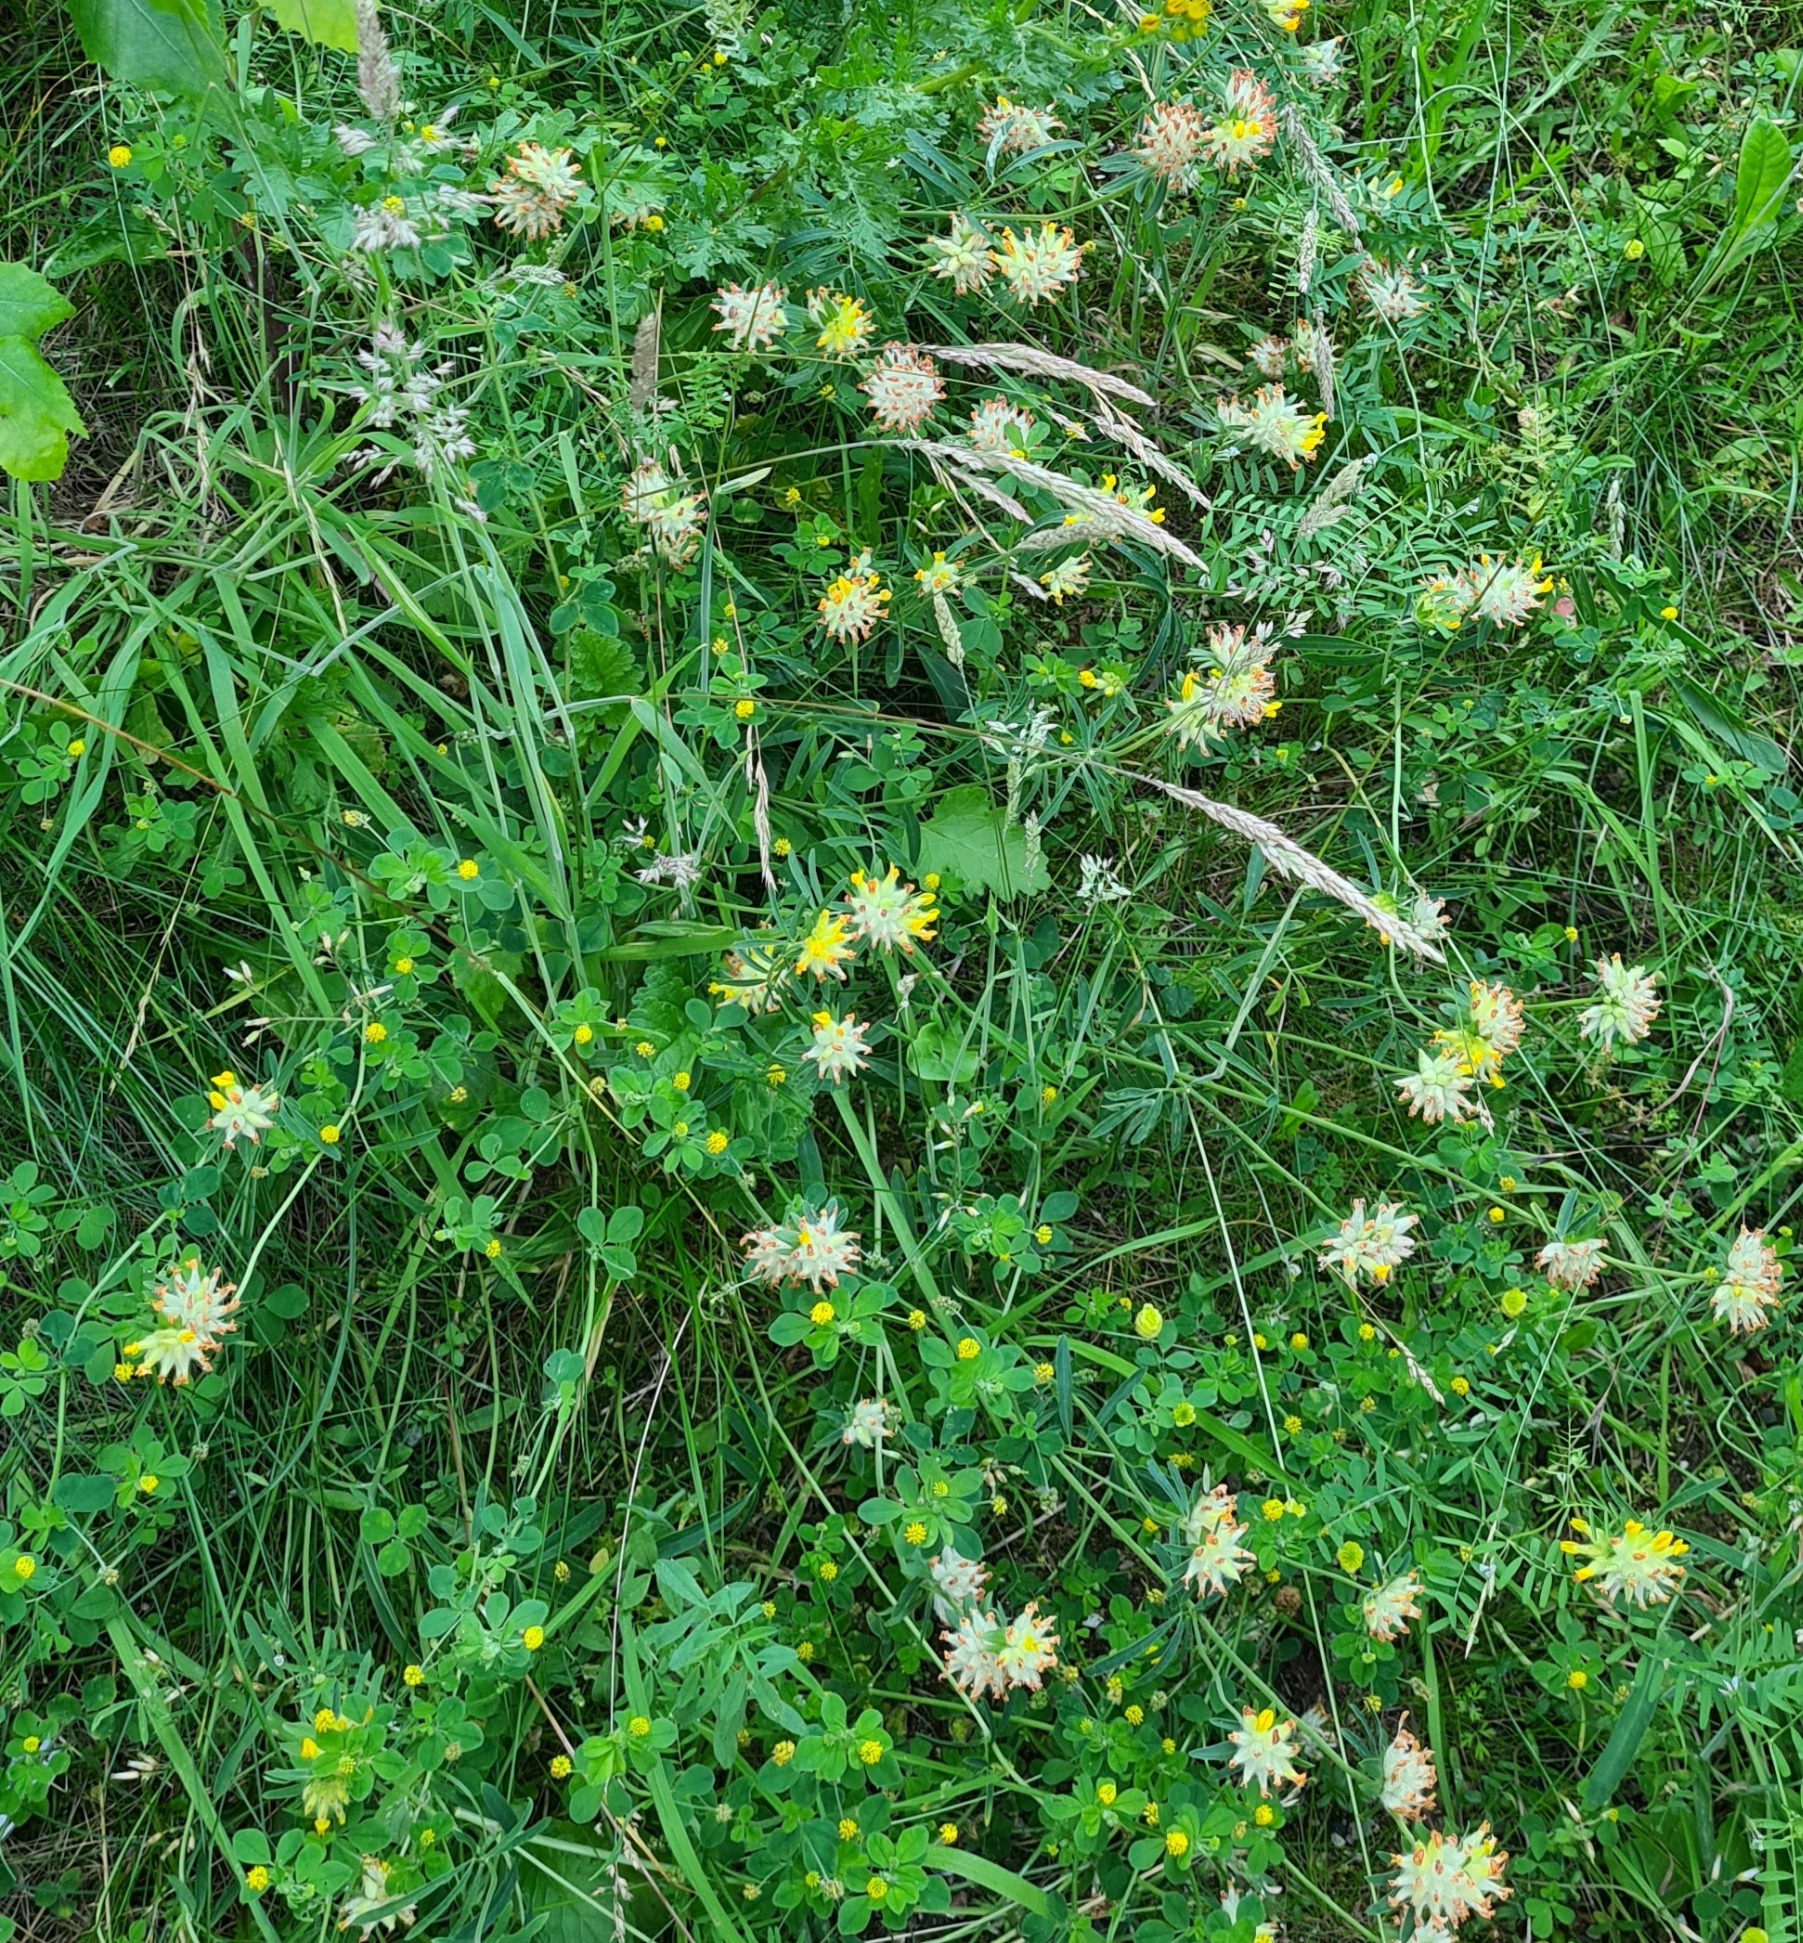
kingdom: Plantae
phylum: Tracheophyta
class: Magnoliopsida
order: Fabales
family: Fabaceae
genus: Anthyllis
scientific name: Anthyllis vulneraria
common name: Rundbælg
